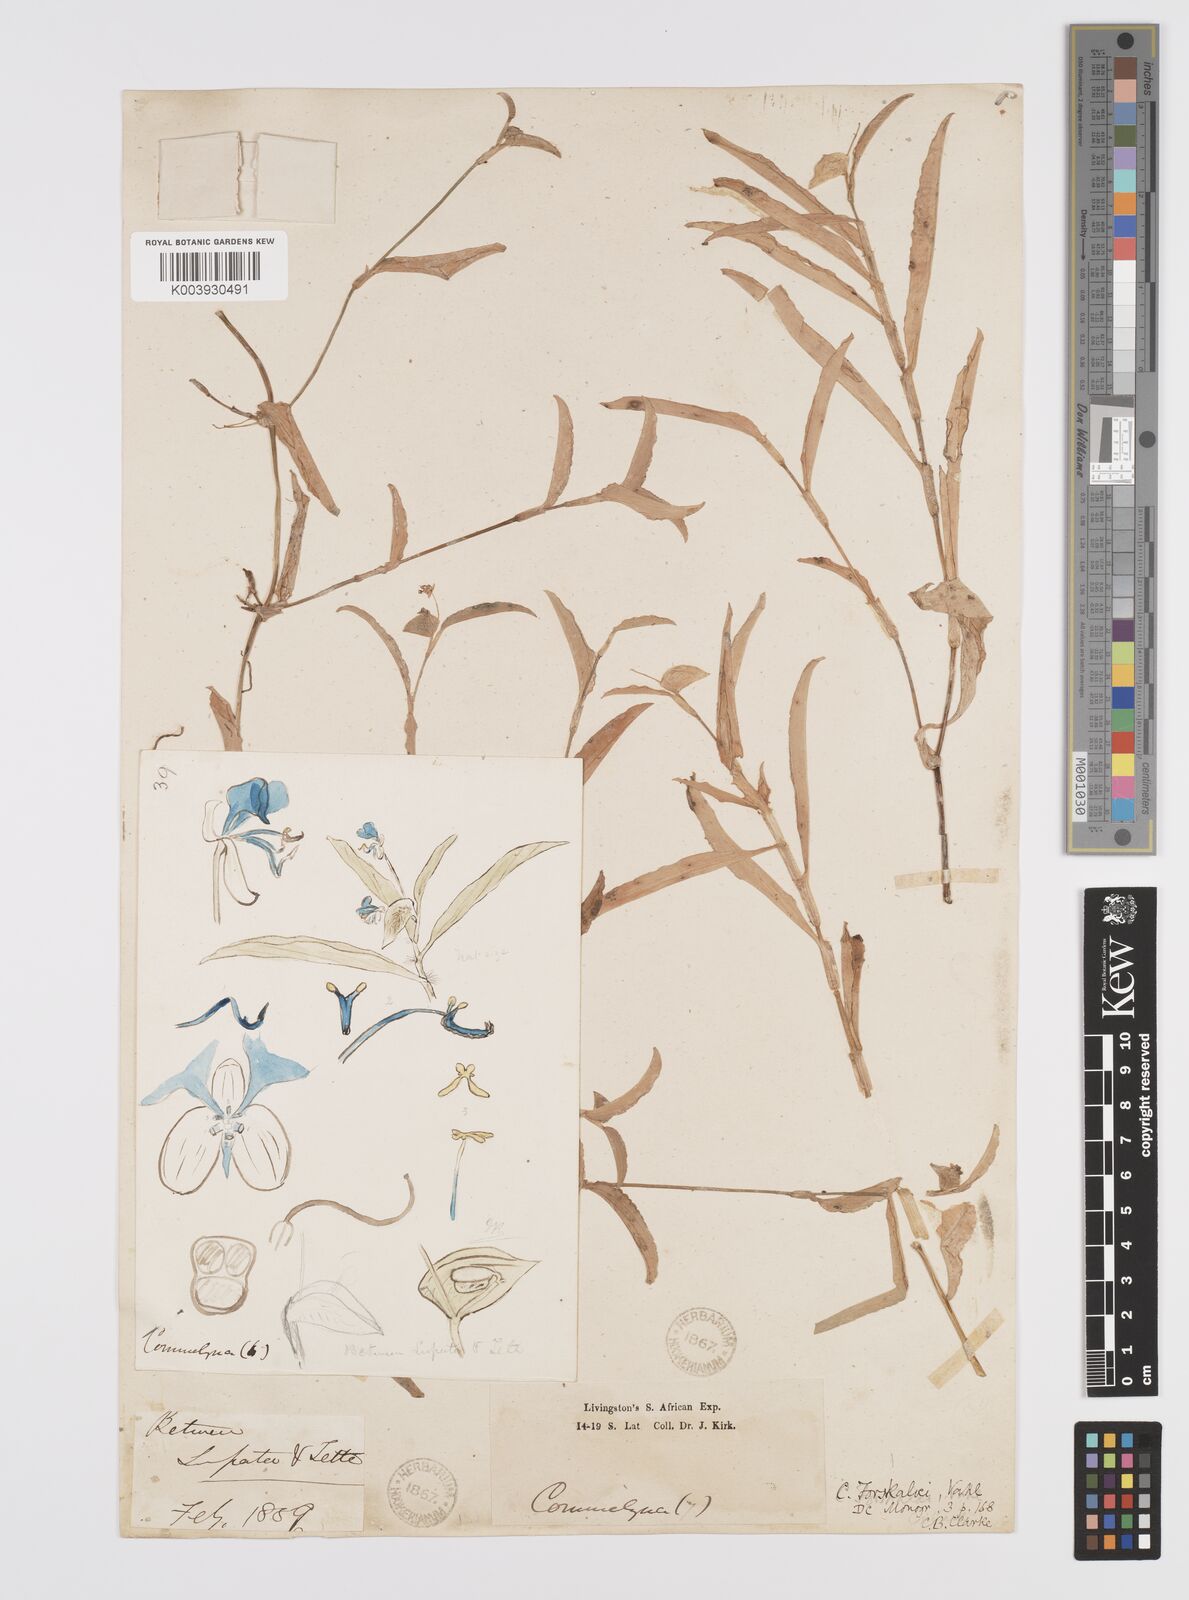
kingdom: Plantae
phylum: Tracheophyta
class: Liliopsida
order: Commelinales
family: Commelinaceae
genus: Commelina
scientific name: Commelina forskaolii
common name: Rat's ear
